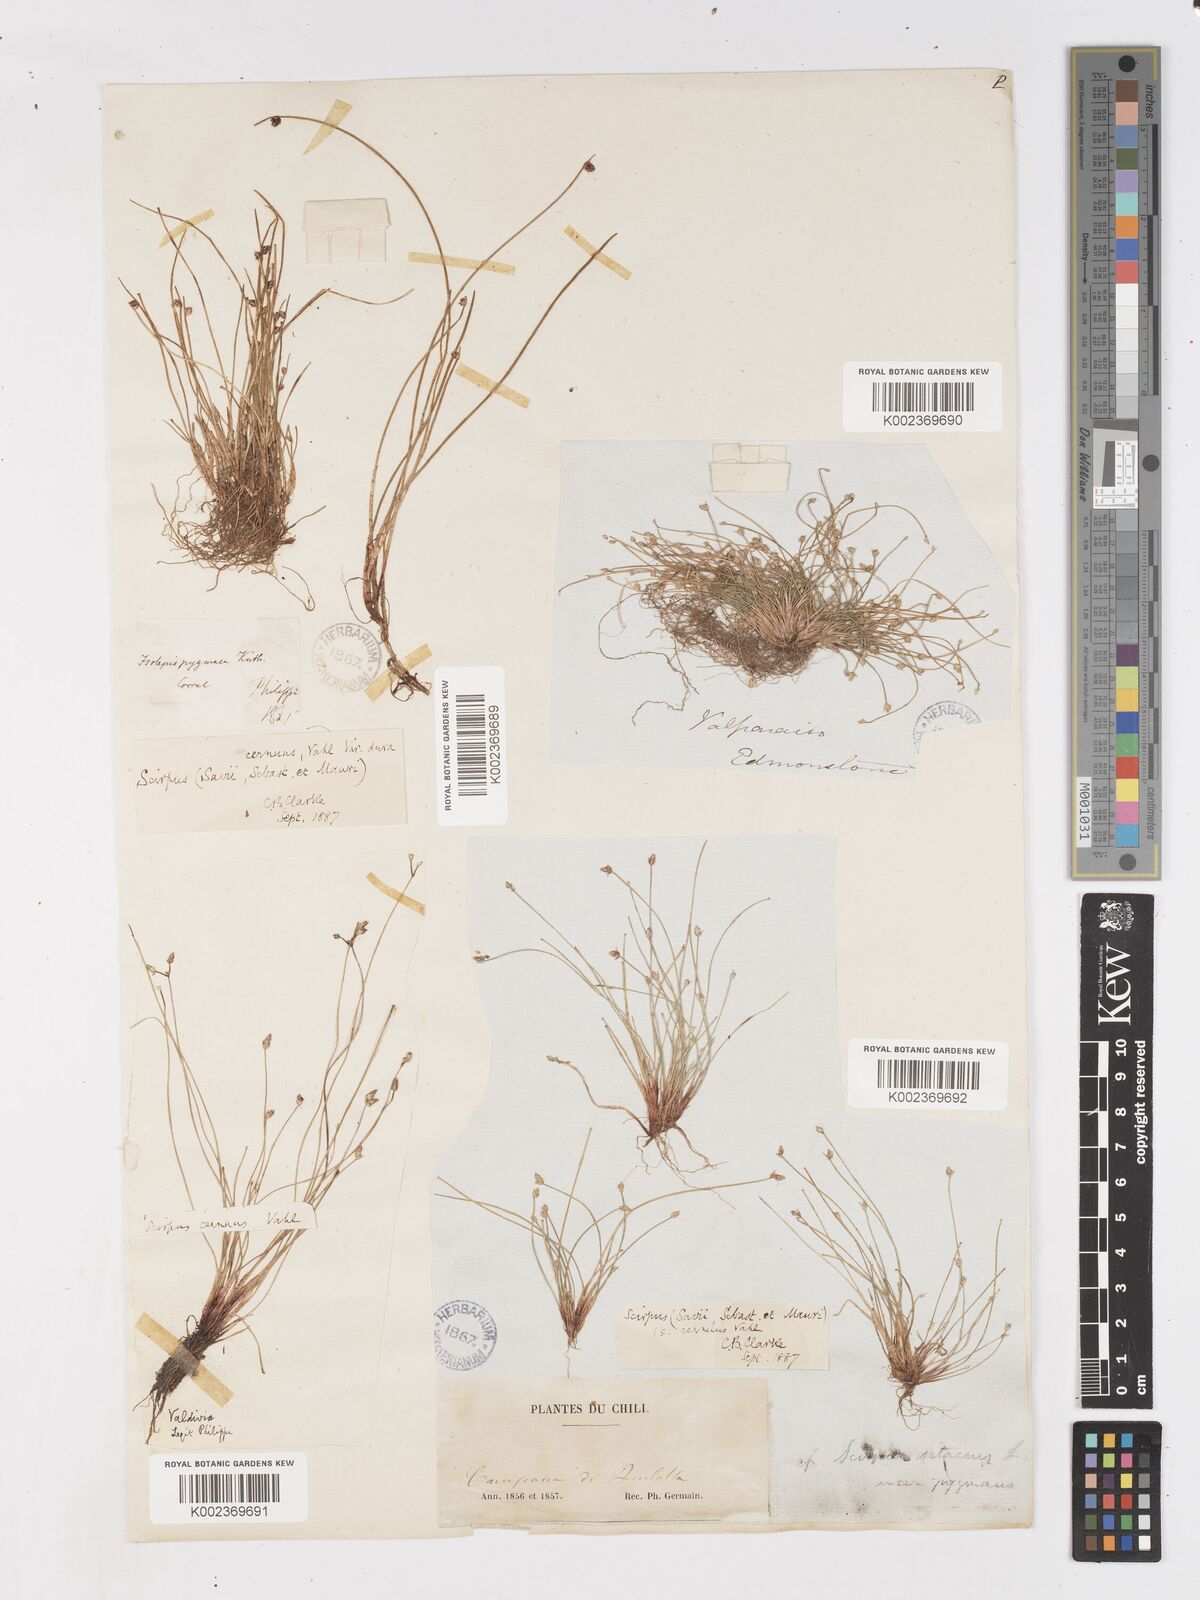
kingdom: Plantae
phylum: Tracheophyta
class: Liliopsida
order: Poales
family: Cyperaceae
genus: Isolepis
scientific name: Isolepis cernua
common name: Slender club-rush
